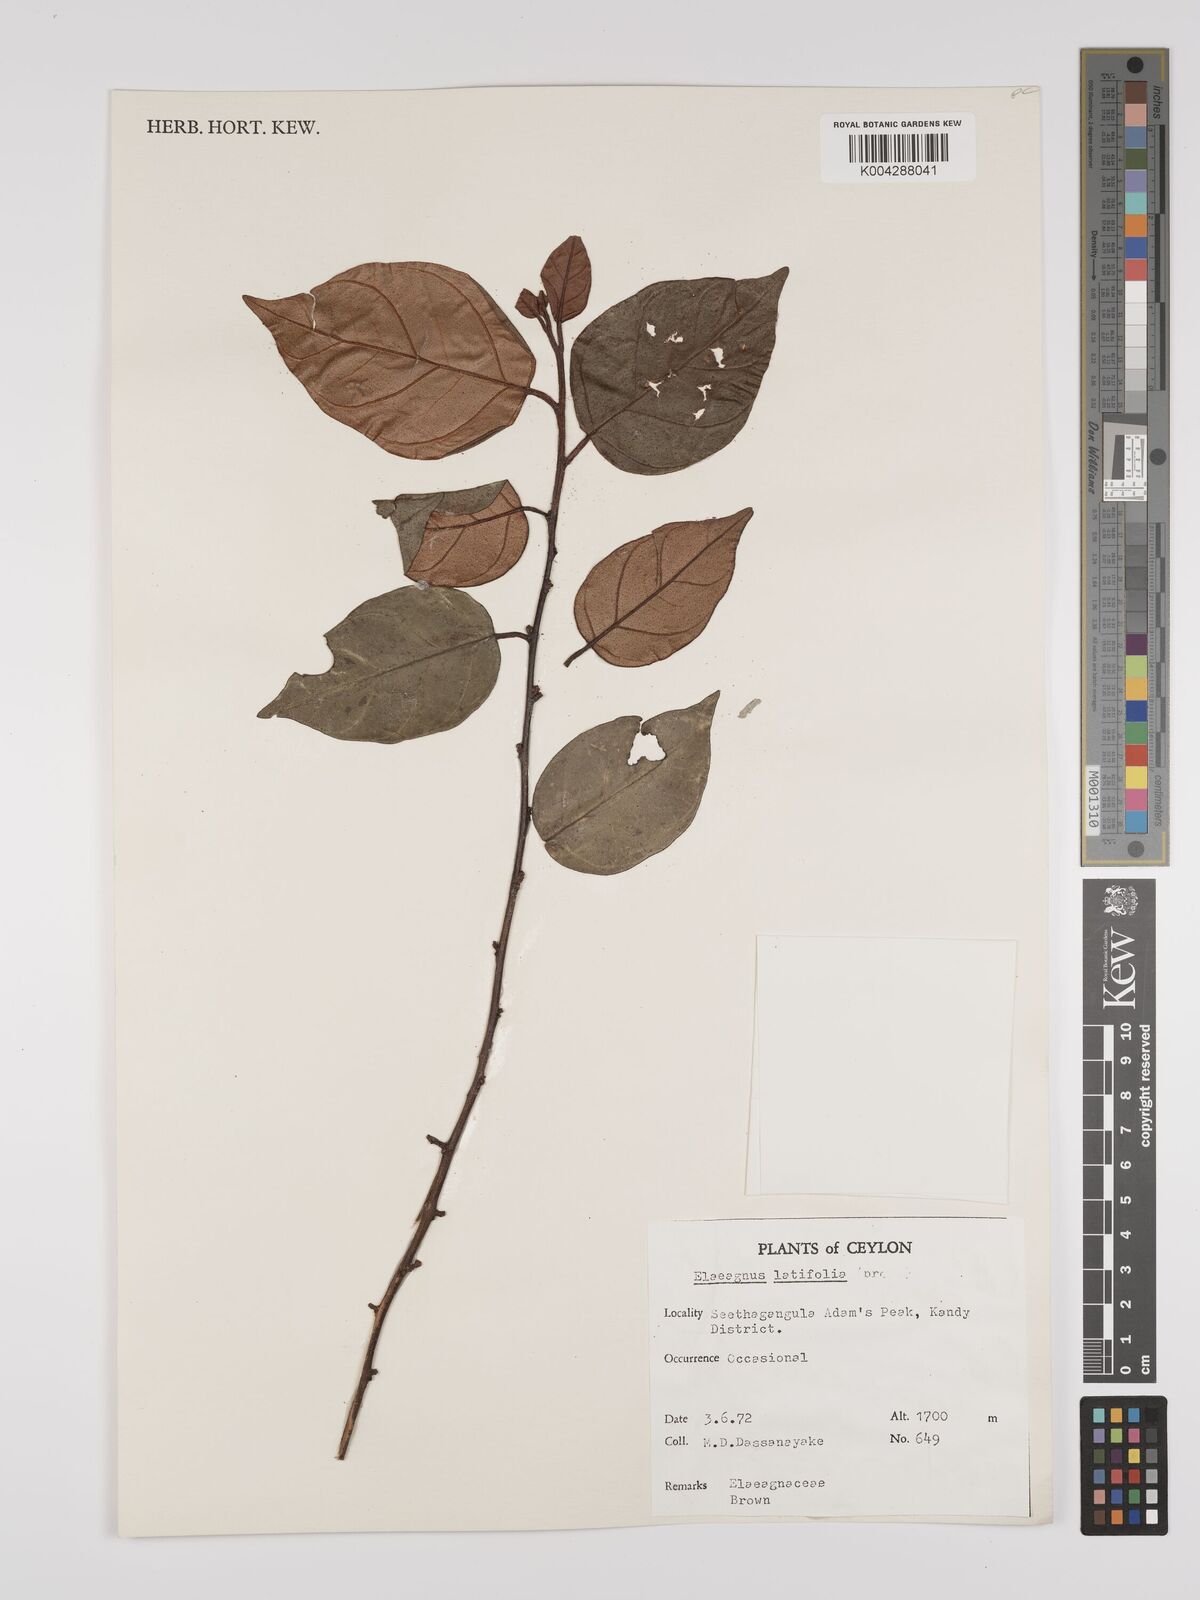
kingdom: Plantae
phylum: Tracheophyta
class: Magnoliopsida
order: Rosales
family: Elaeagnaceae
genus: Elaeagnus
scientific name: Elaeagnus latifolia
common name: Oleaster
